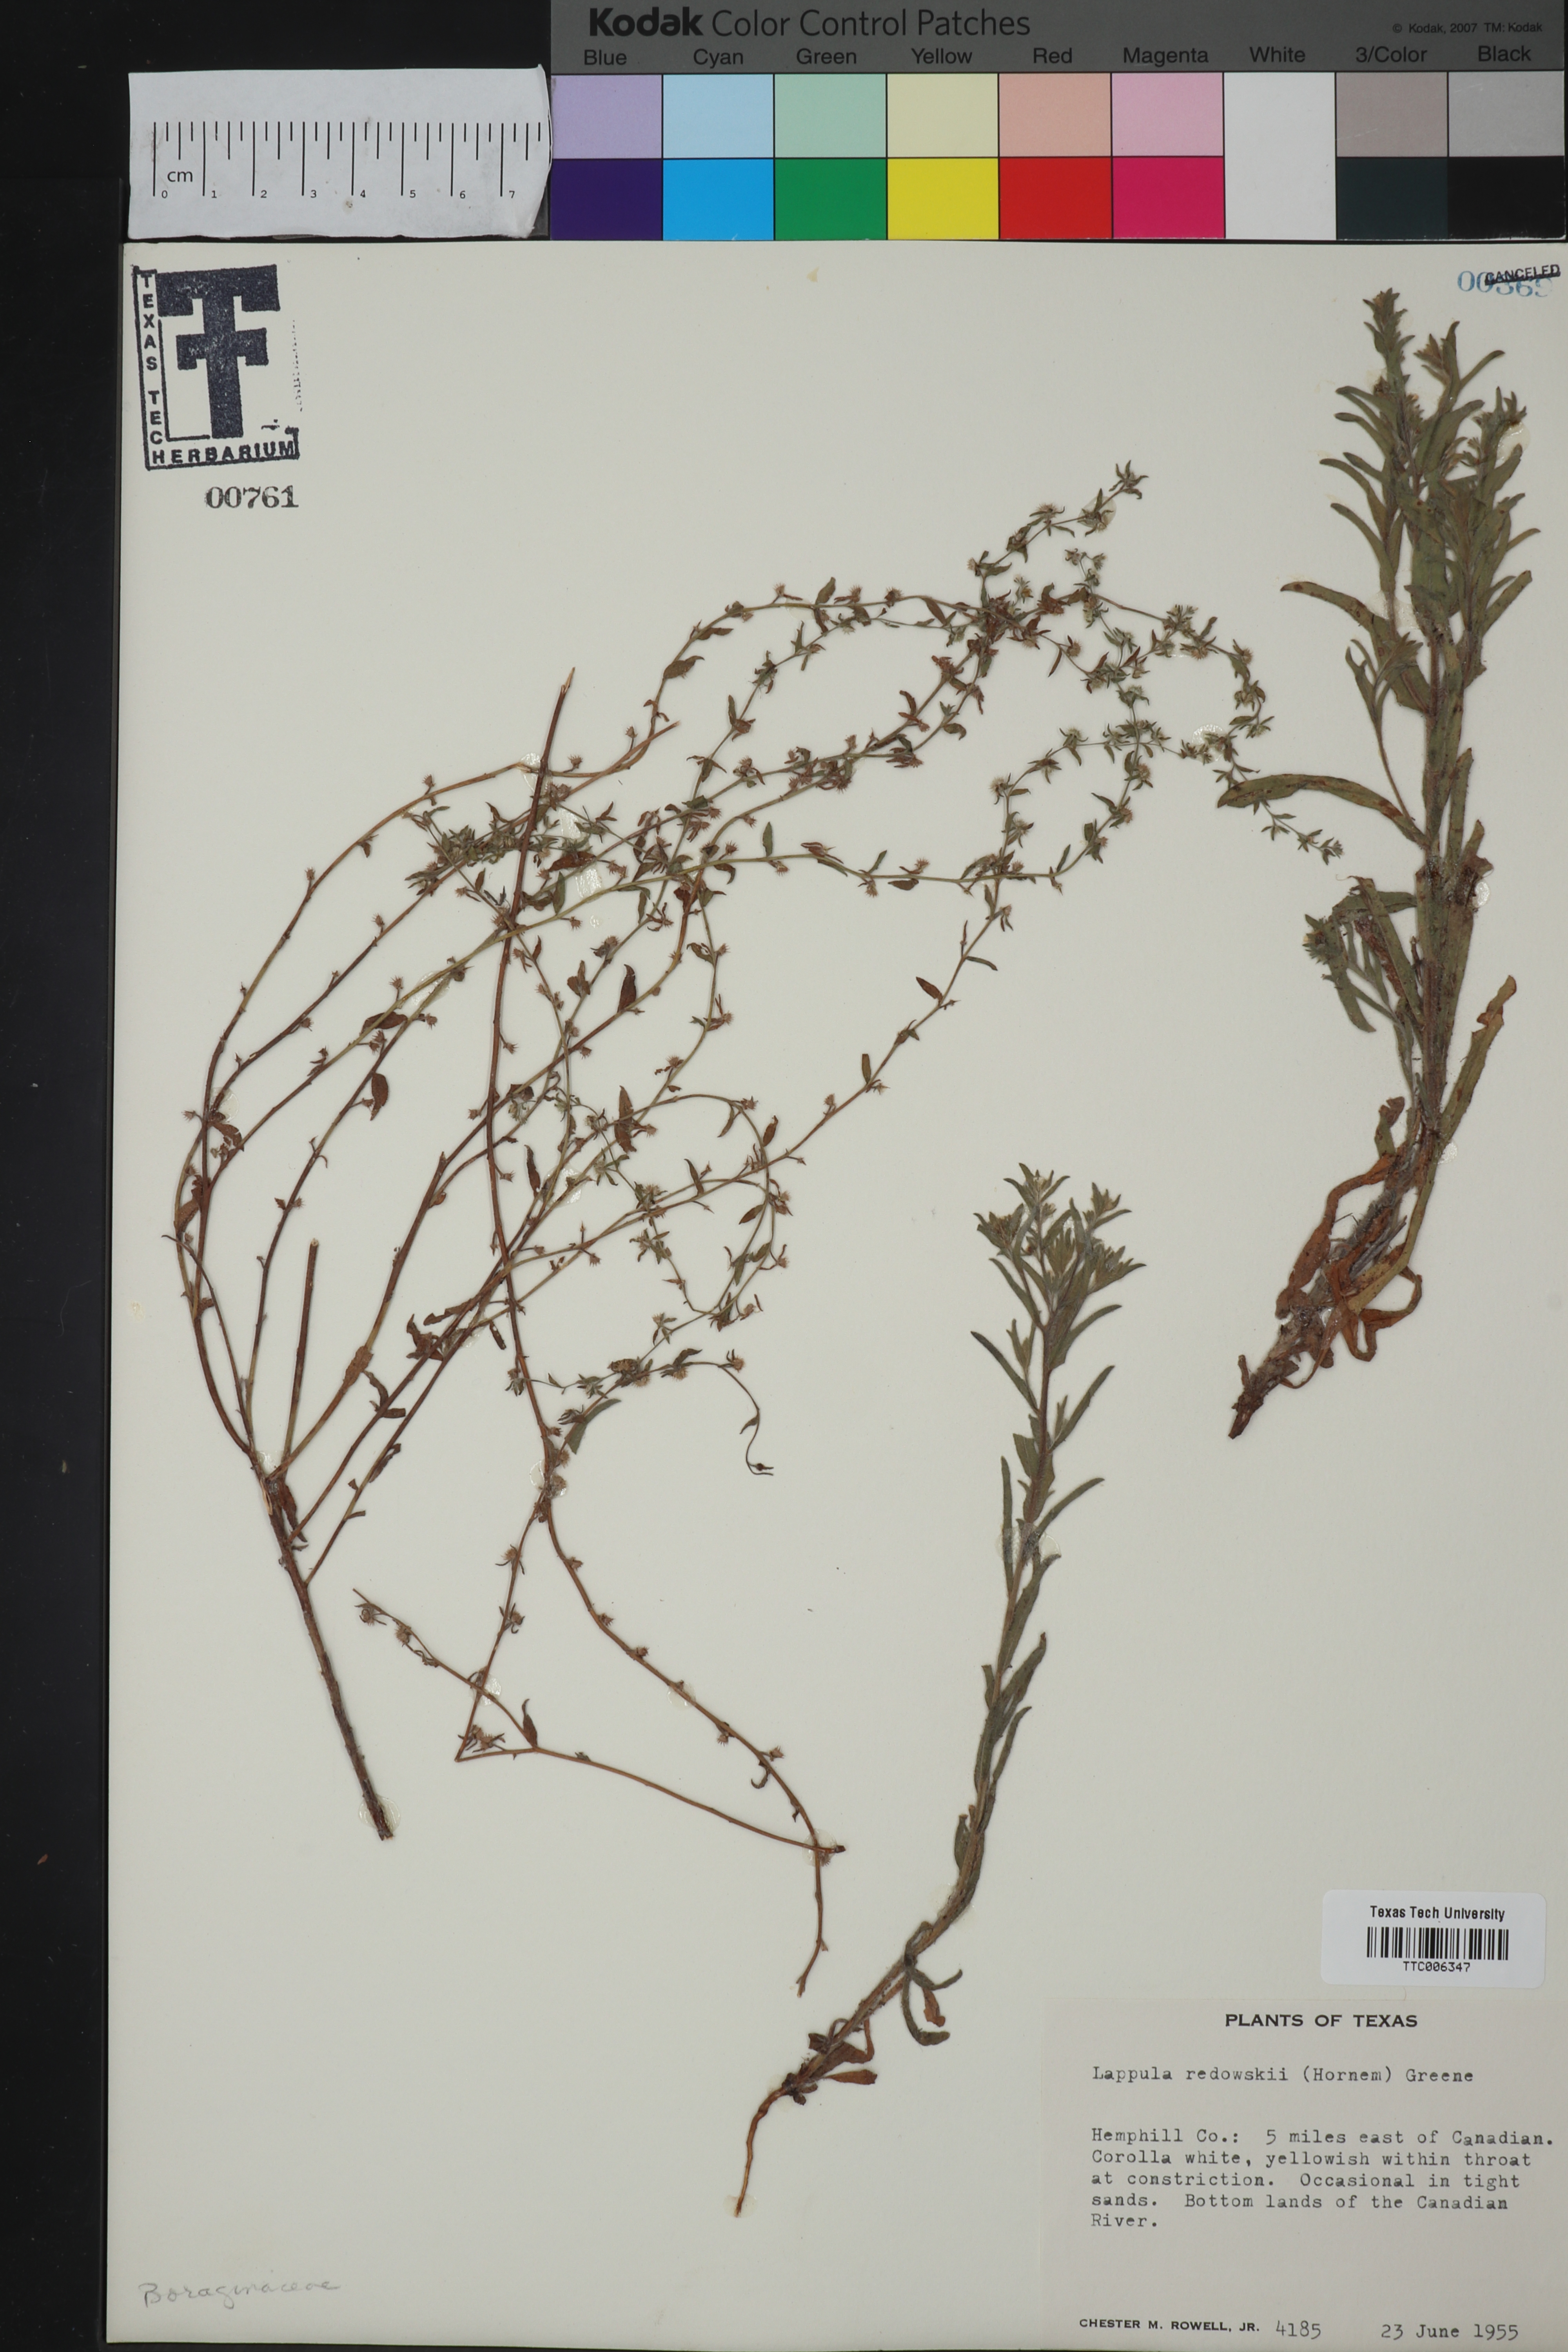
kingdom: Plantae
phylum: Tracheophyta
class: Magnoliopsida
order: Boraginales
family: Boraginaceae
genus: Lappula
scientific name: Lappula redowskii
